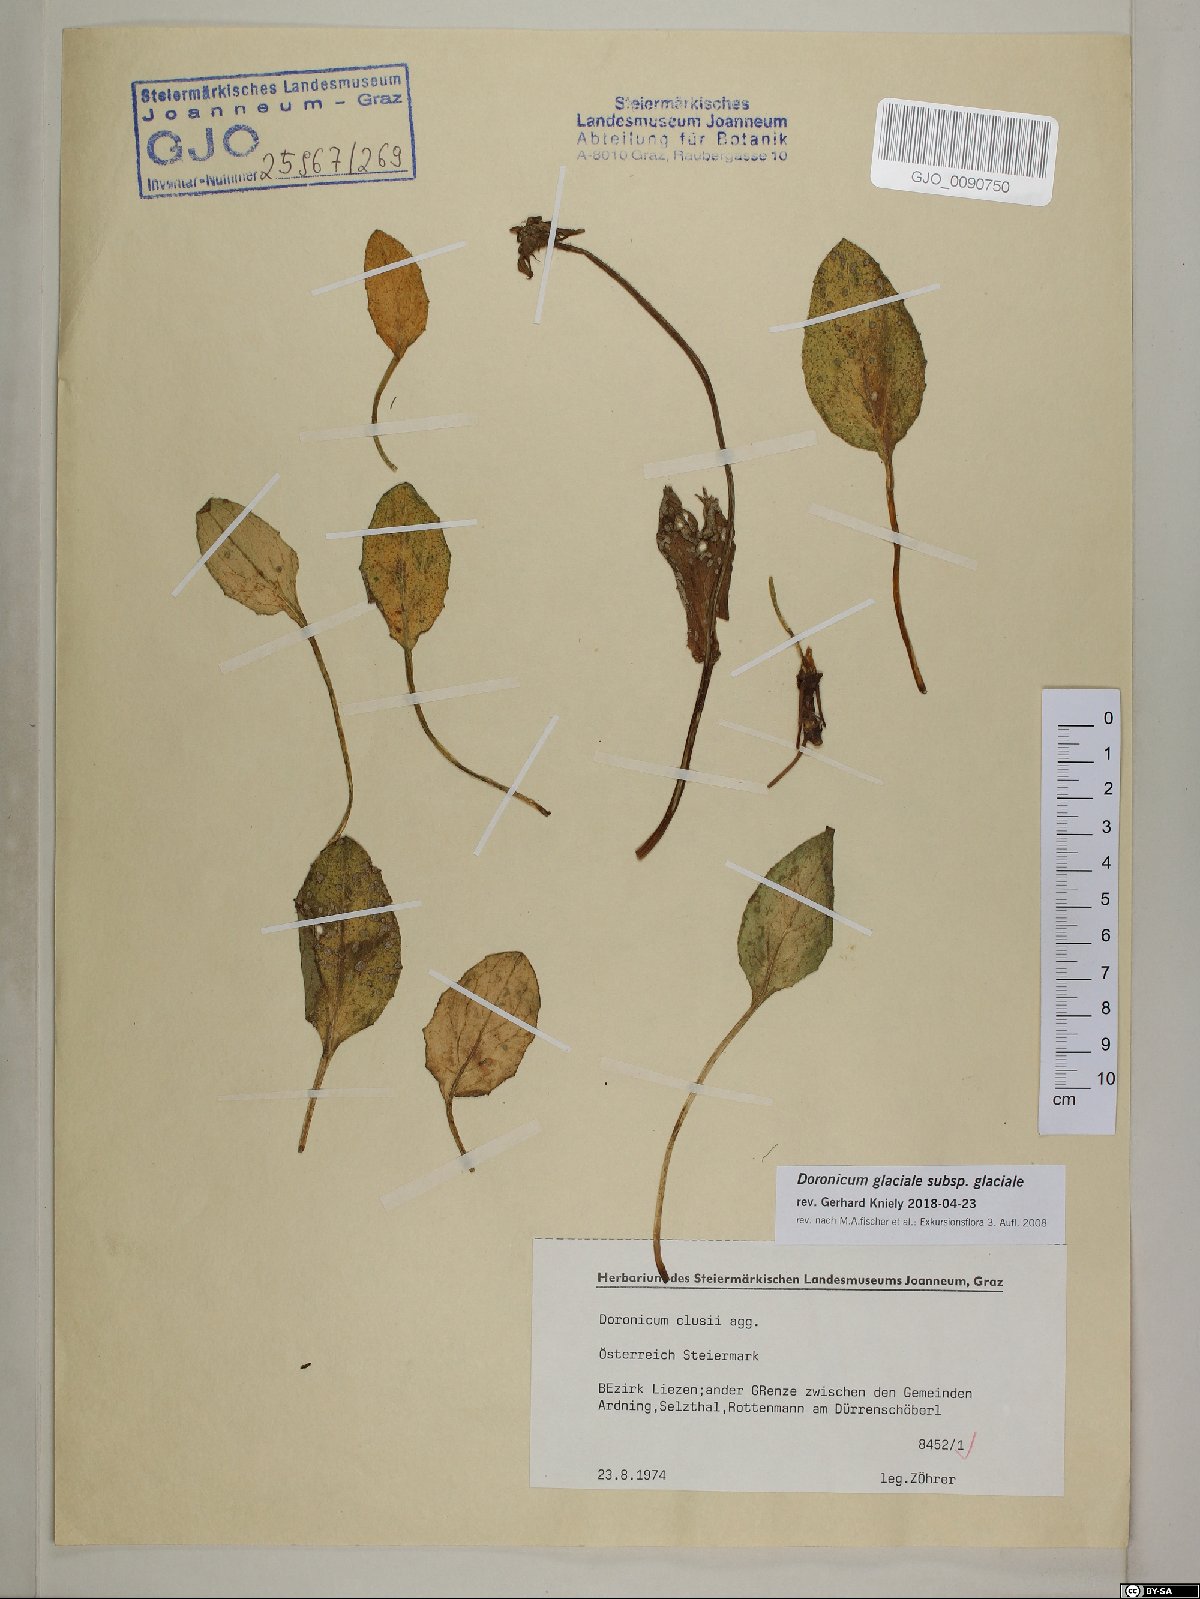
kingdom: Plantae
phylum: Tracheophyta
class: Magnoliopsida
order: Asterales
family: Asteraceae
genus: Doronicum
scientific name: Doronicum glaciale
